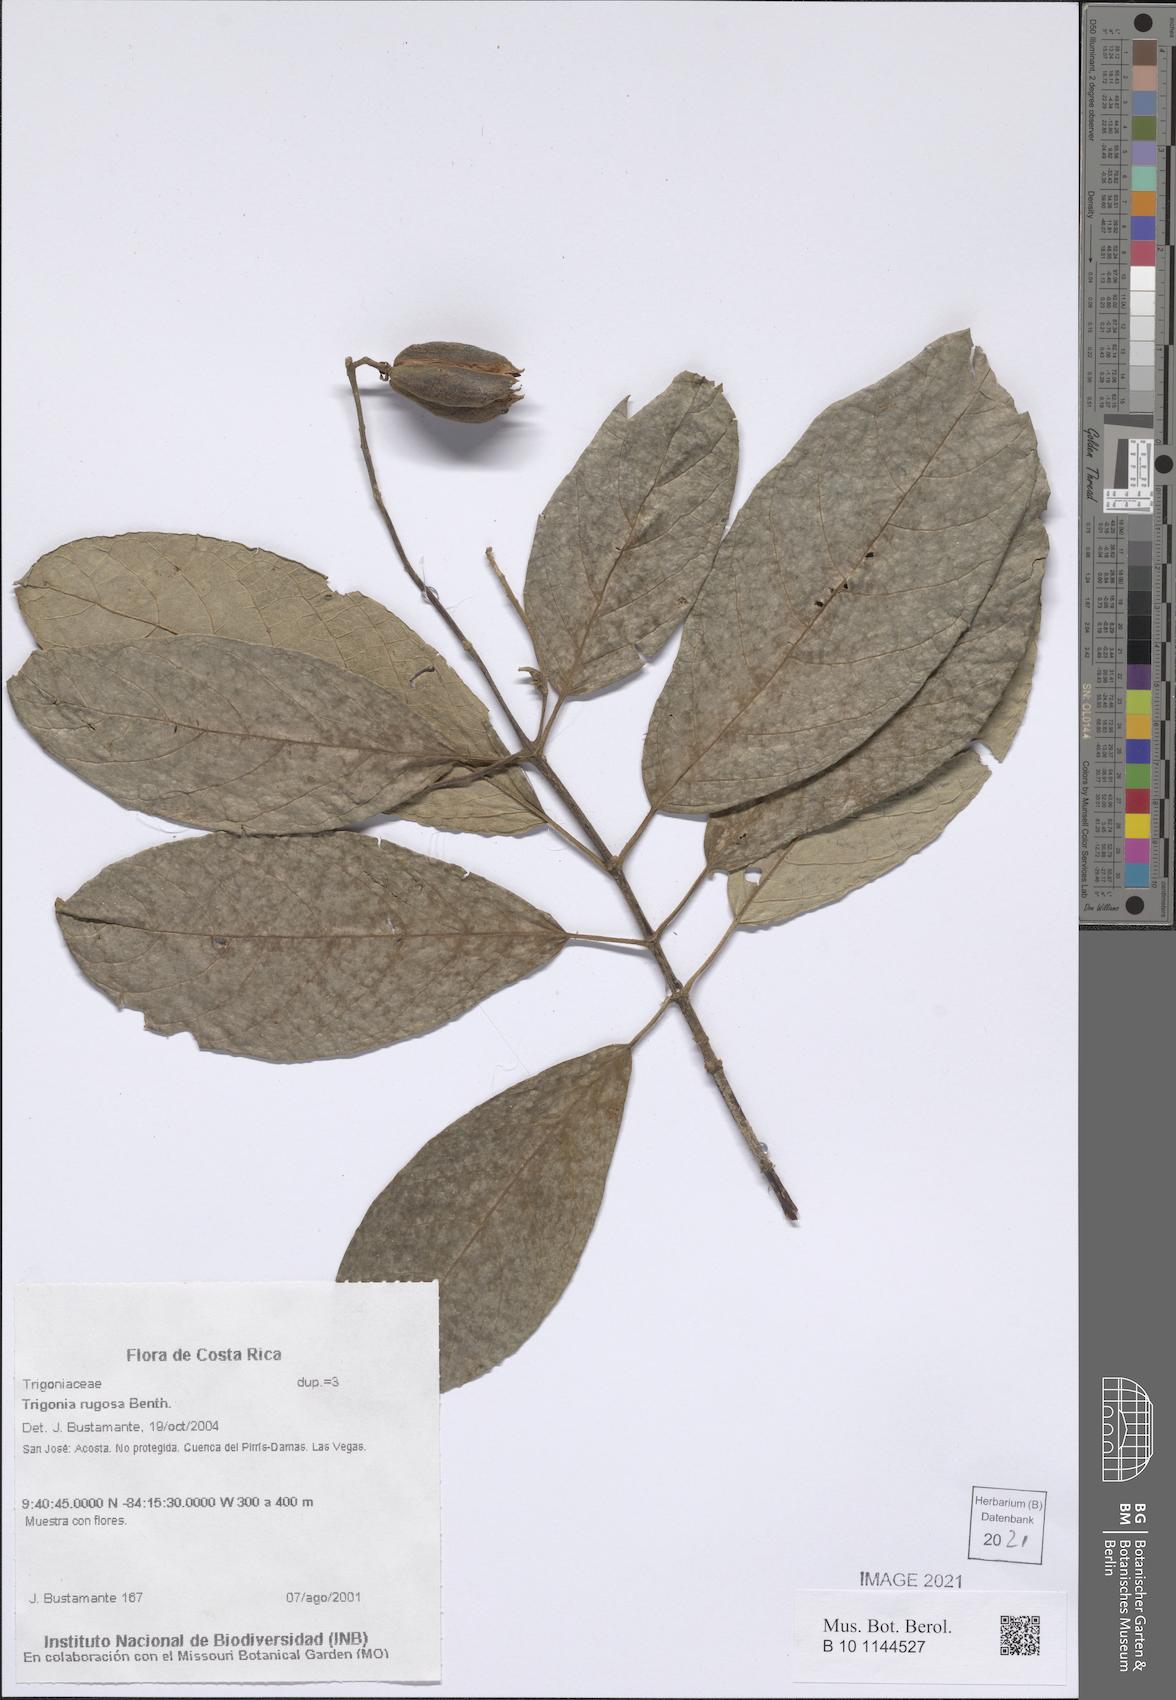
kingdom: Plantae
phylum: Tracheophyta
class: Magnoliopsida
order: Malpighiales
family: Trigoniaceae
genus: Trigonia
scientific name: Trigonia rugosa
